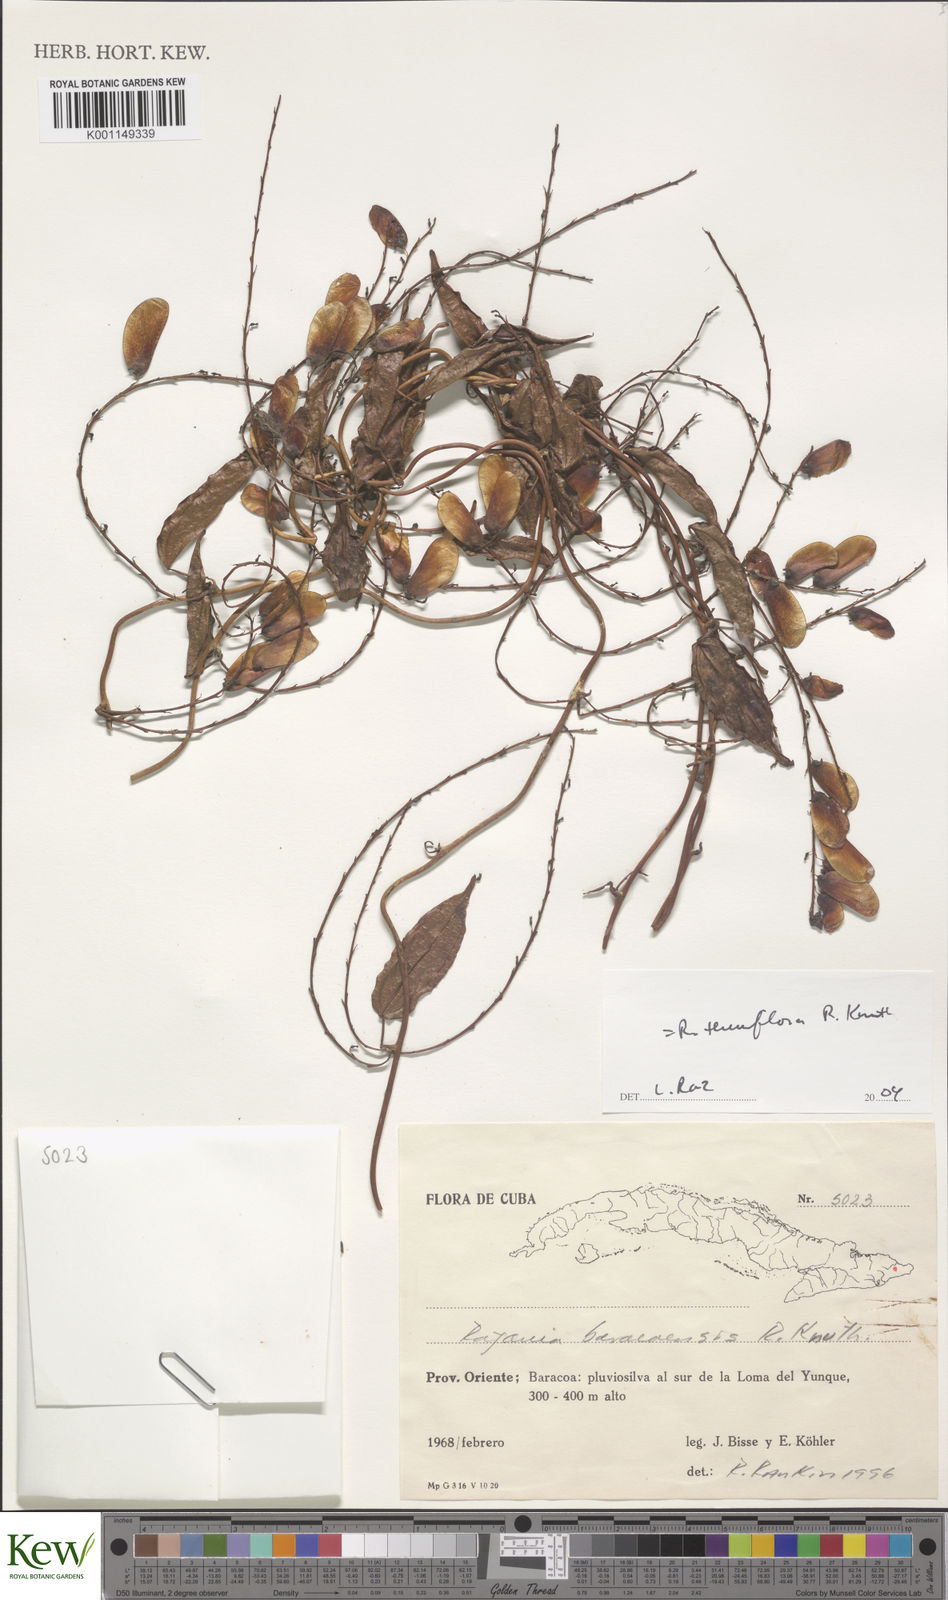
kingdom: Plantae
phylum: Tracheophyta
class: Liliopsida
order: Dioscoreales
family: Dioscoreaceae
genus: Dioscorea
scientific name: Dioscorea bulbifera
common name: Air yam
